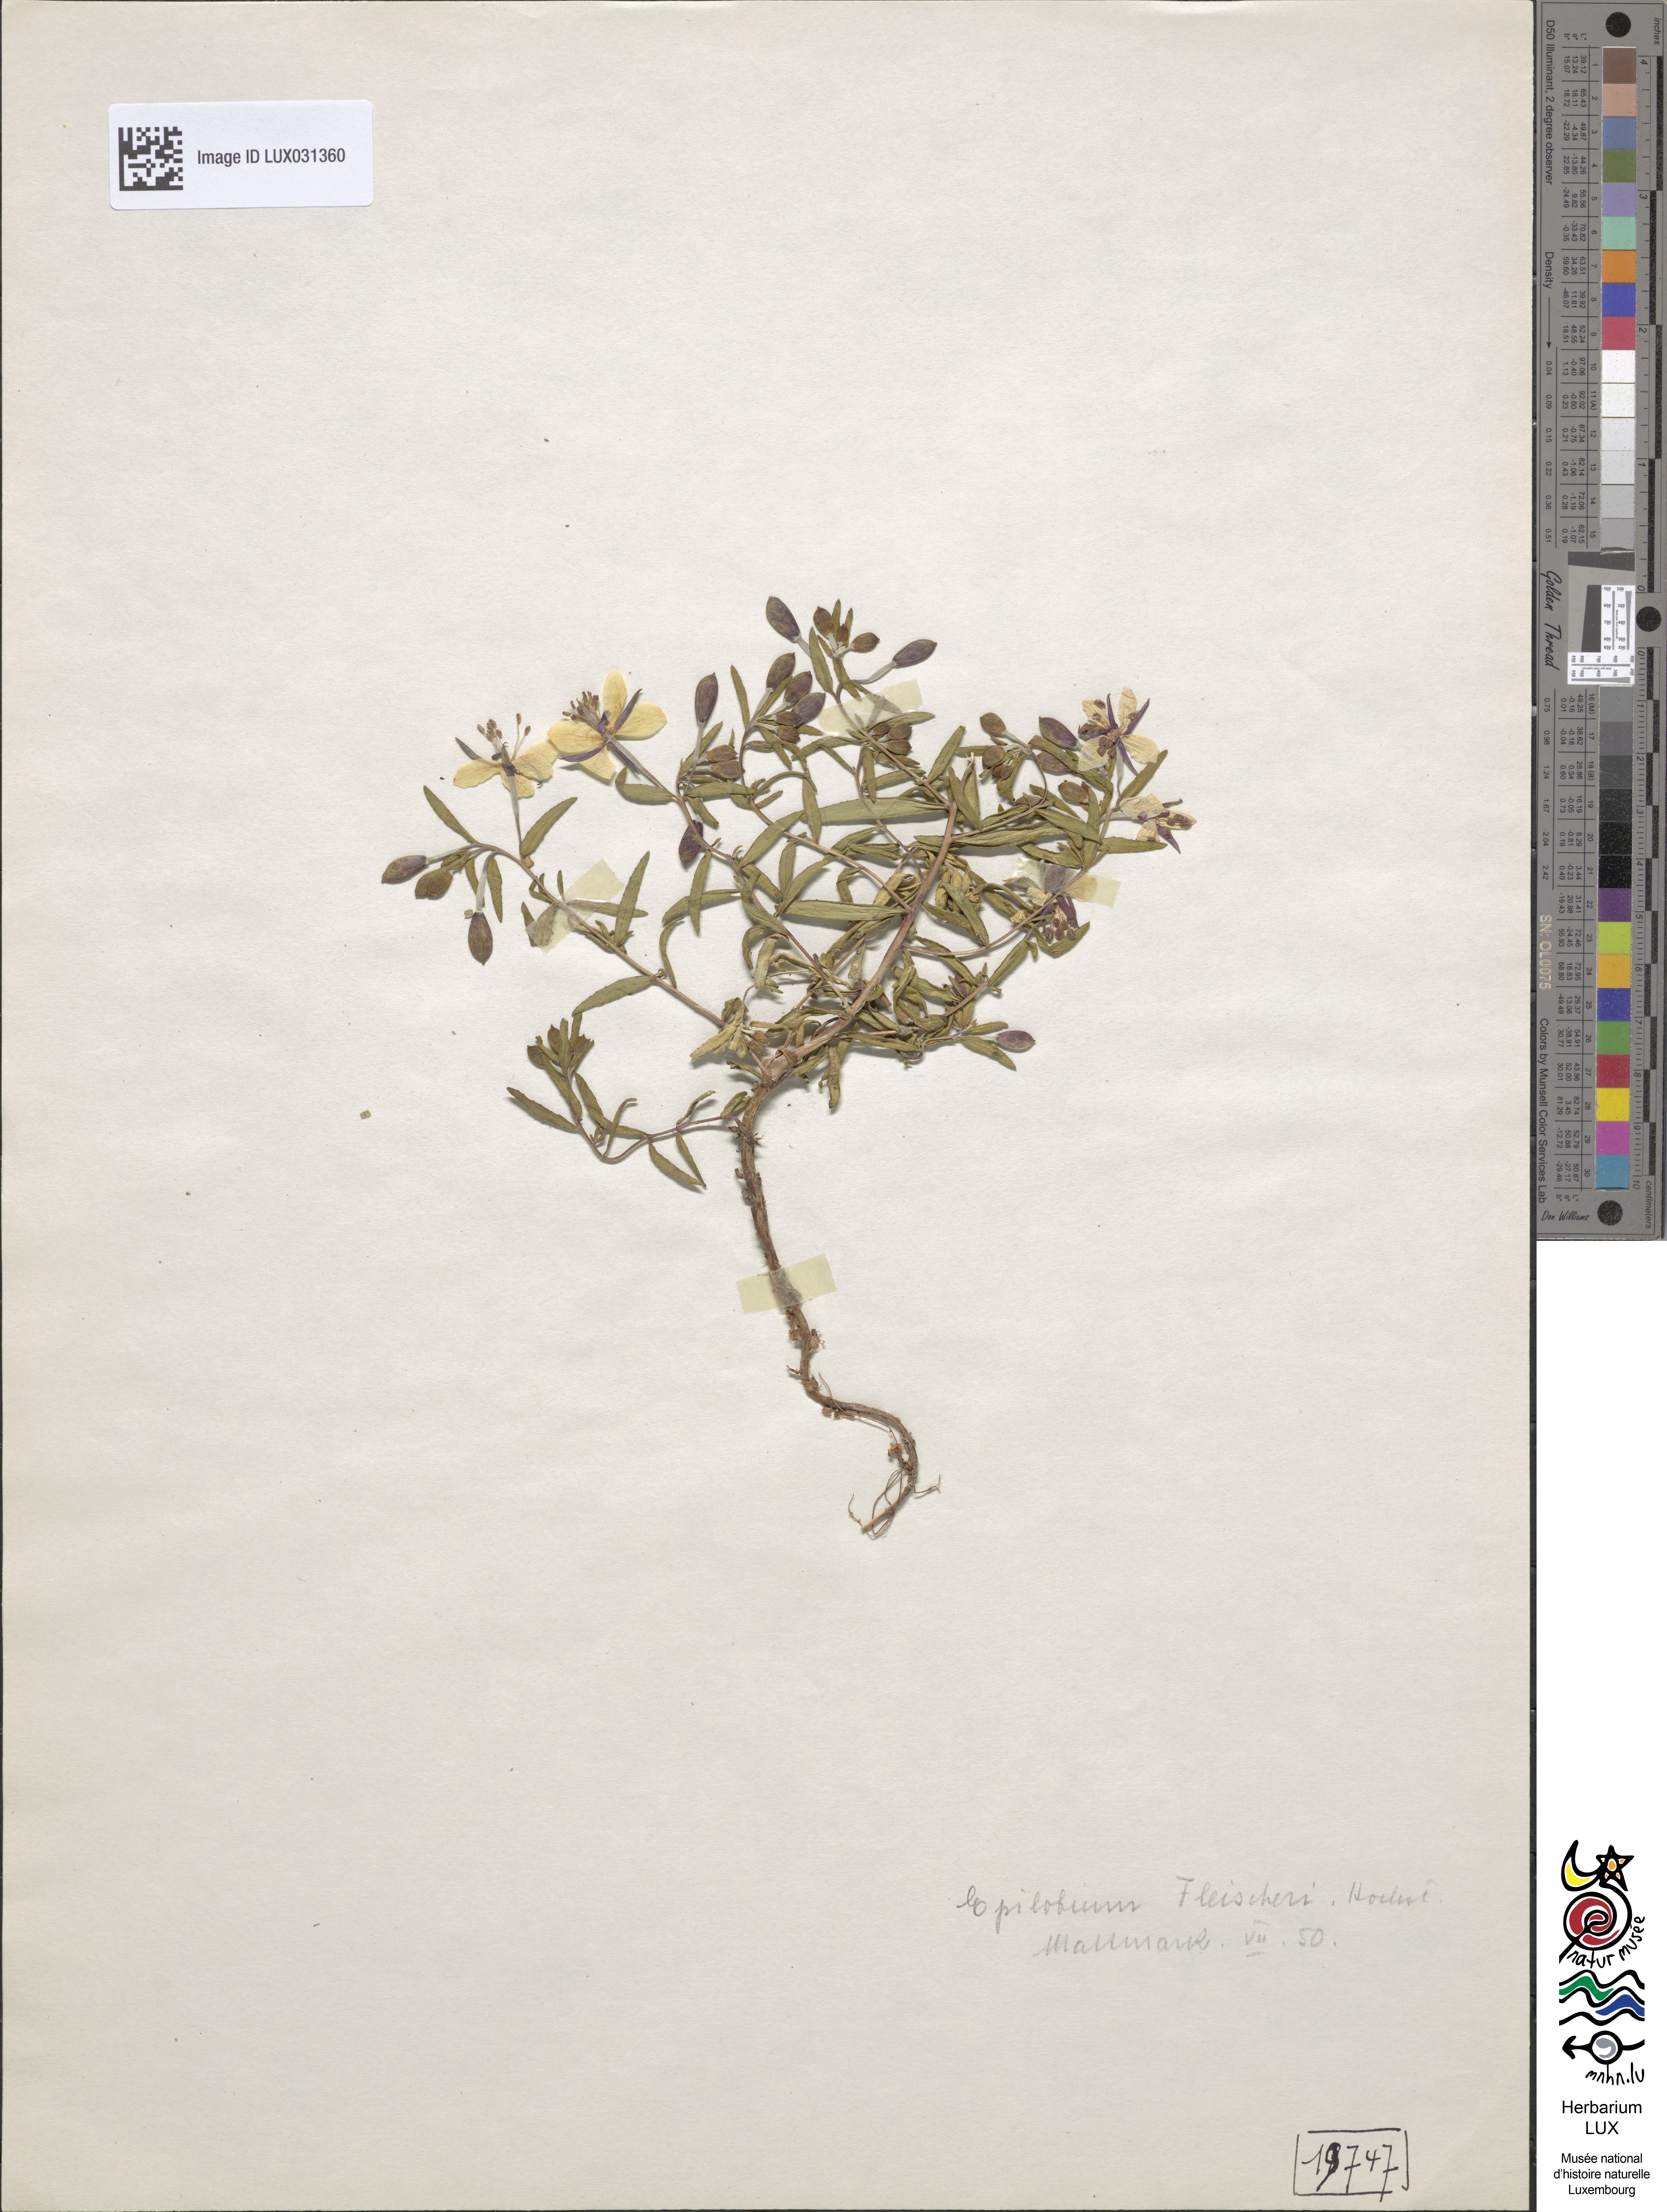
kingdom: Plantae
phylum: Tracheophyta
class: Magnoliopsida
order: Myrtales
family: Onagraceae
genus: Chamaenerion
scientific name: Chamaenerion fleischeri
